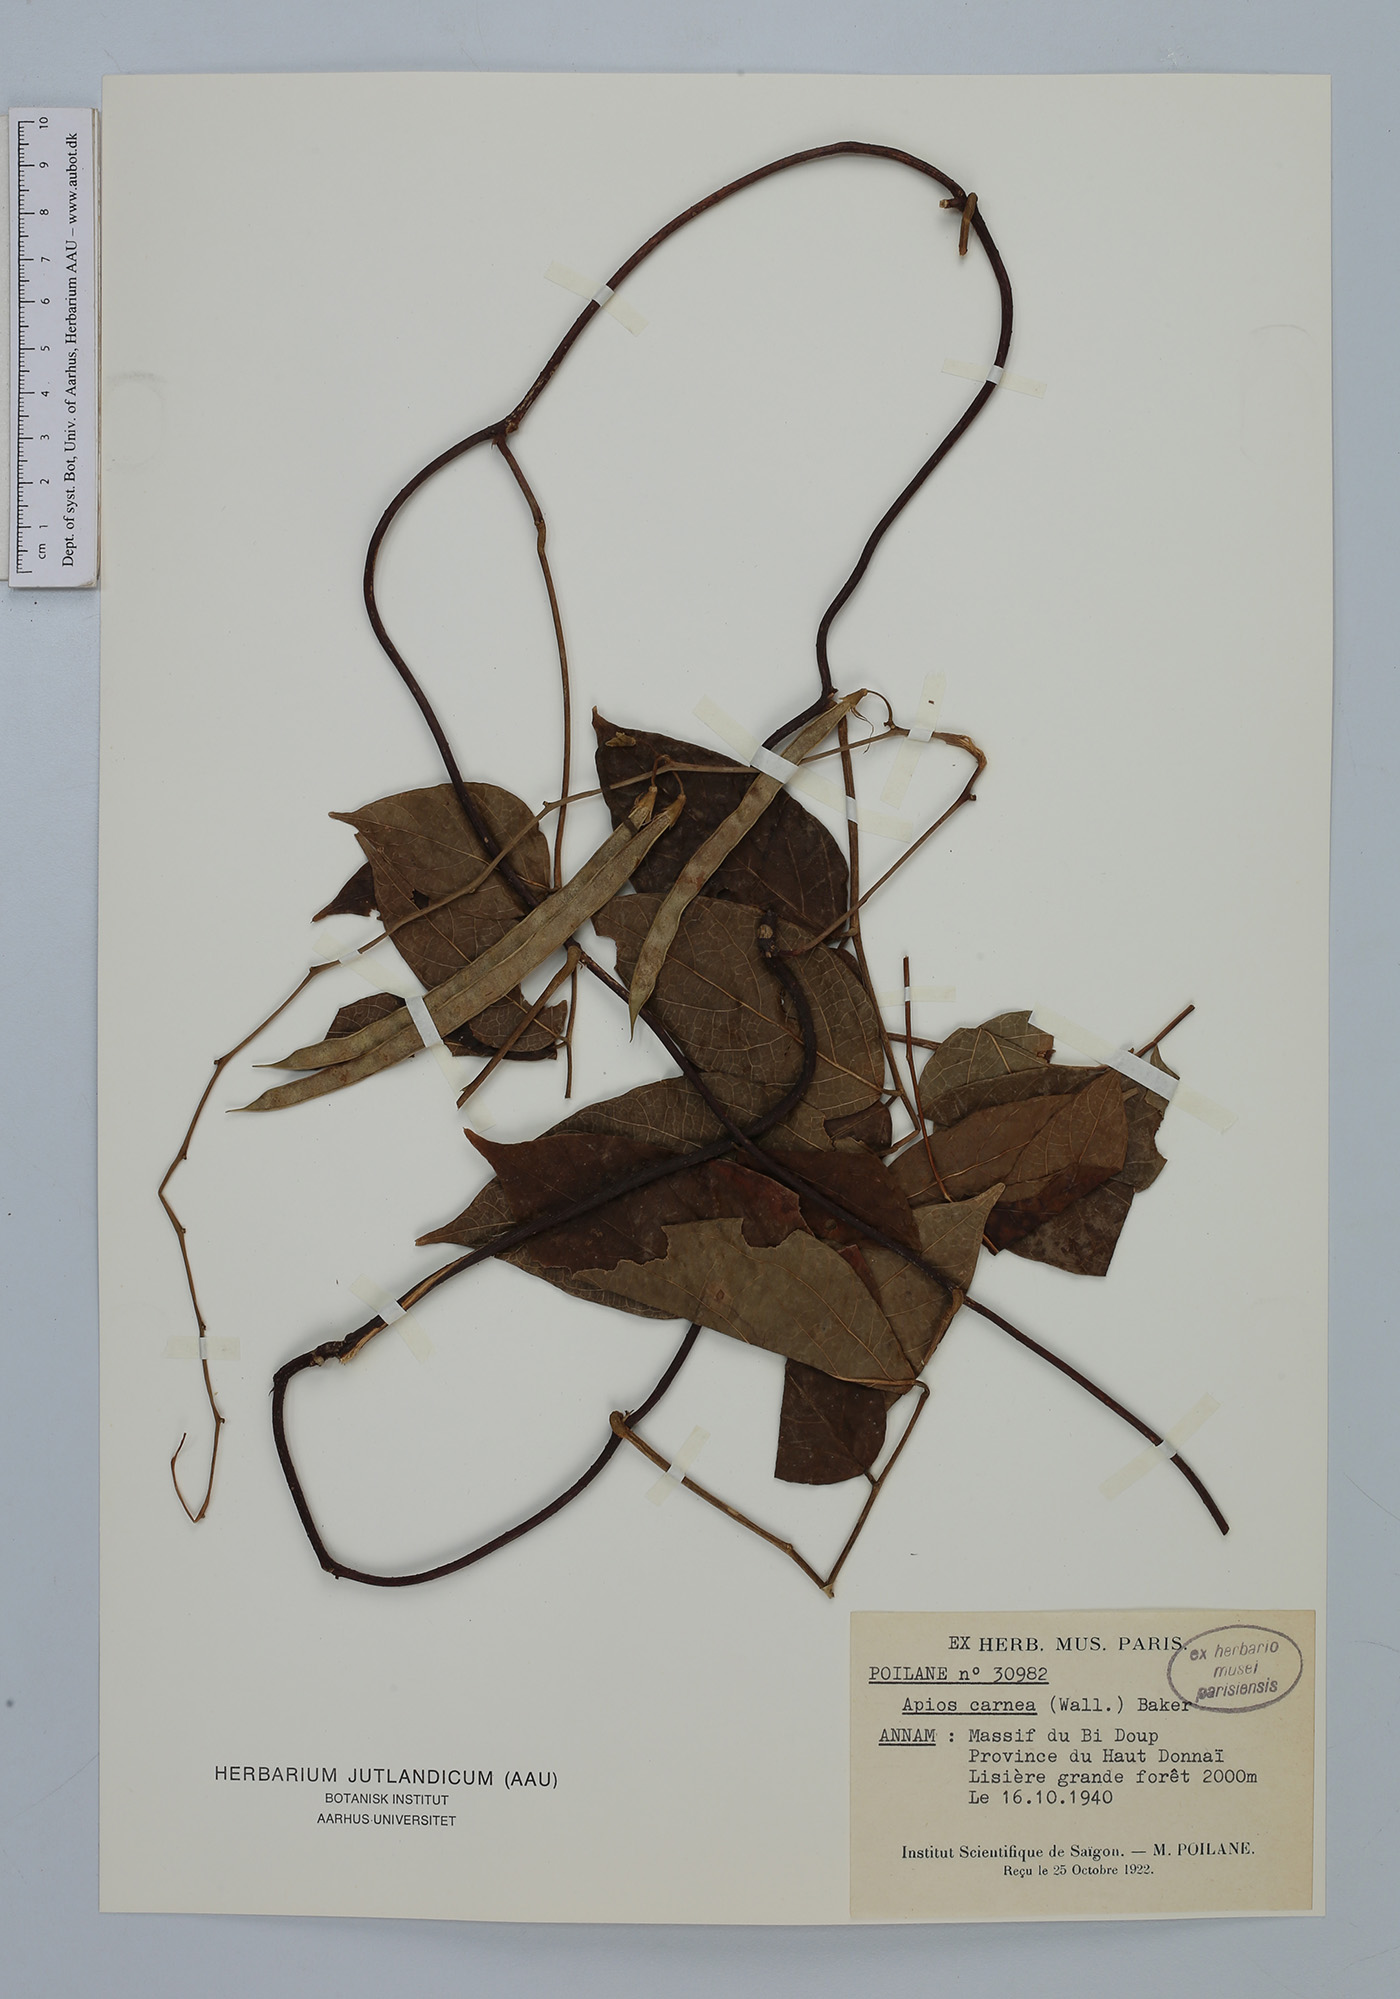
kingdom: Plantae
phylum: Tracheophyta
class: Magnoliopsida
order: Fabales
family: Fabaceae
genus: Apios
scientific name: Apios carnea
